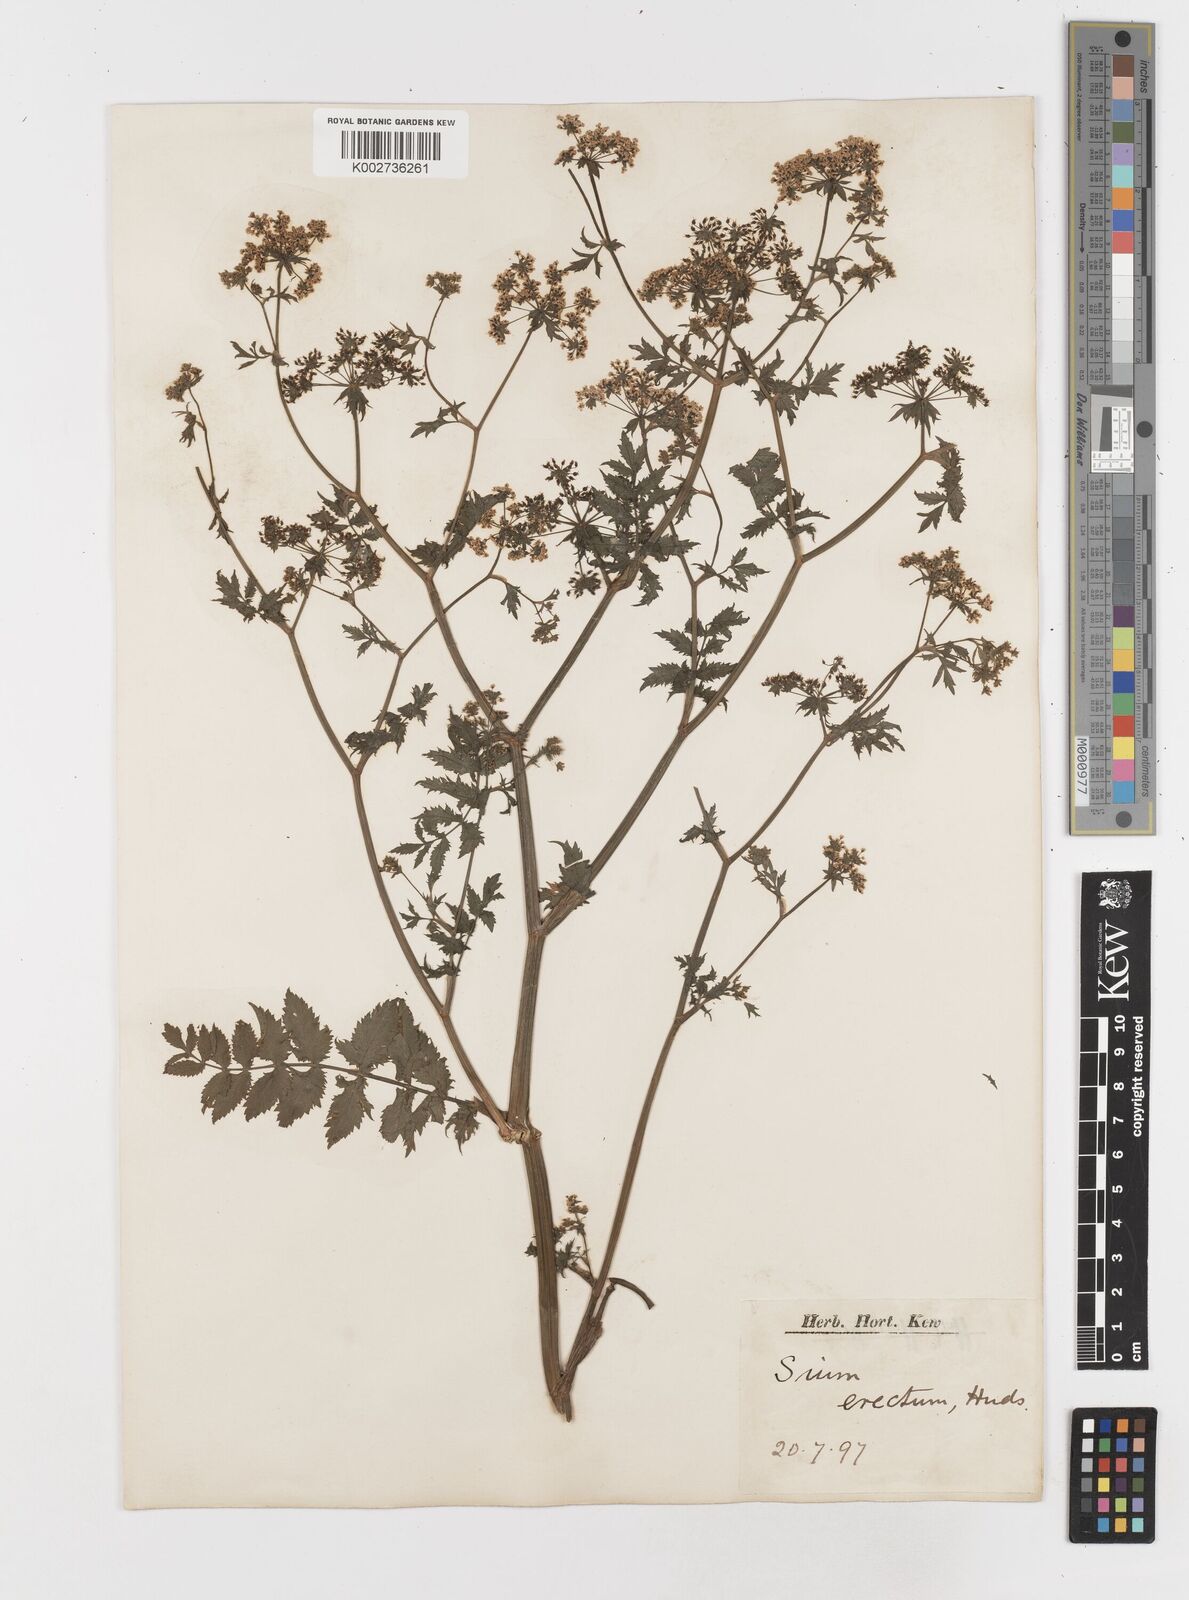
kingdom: Plantae
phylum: Tracheophyta
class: Magnoliopsida
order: Apiales
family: Apiaceae
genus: Berula
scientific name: Berula erecta
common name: Lesser water-parsnip
